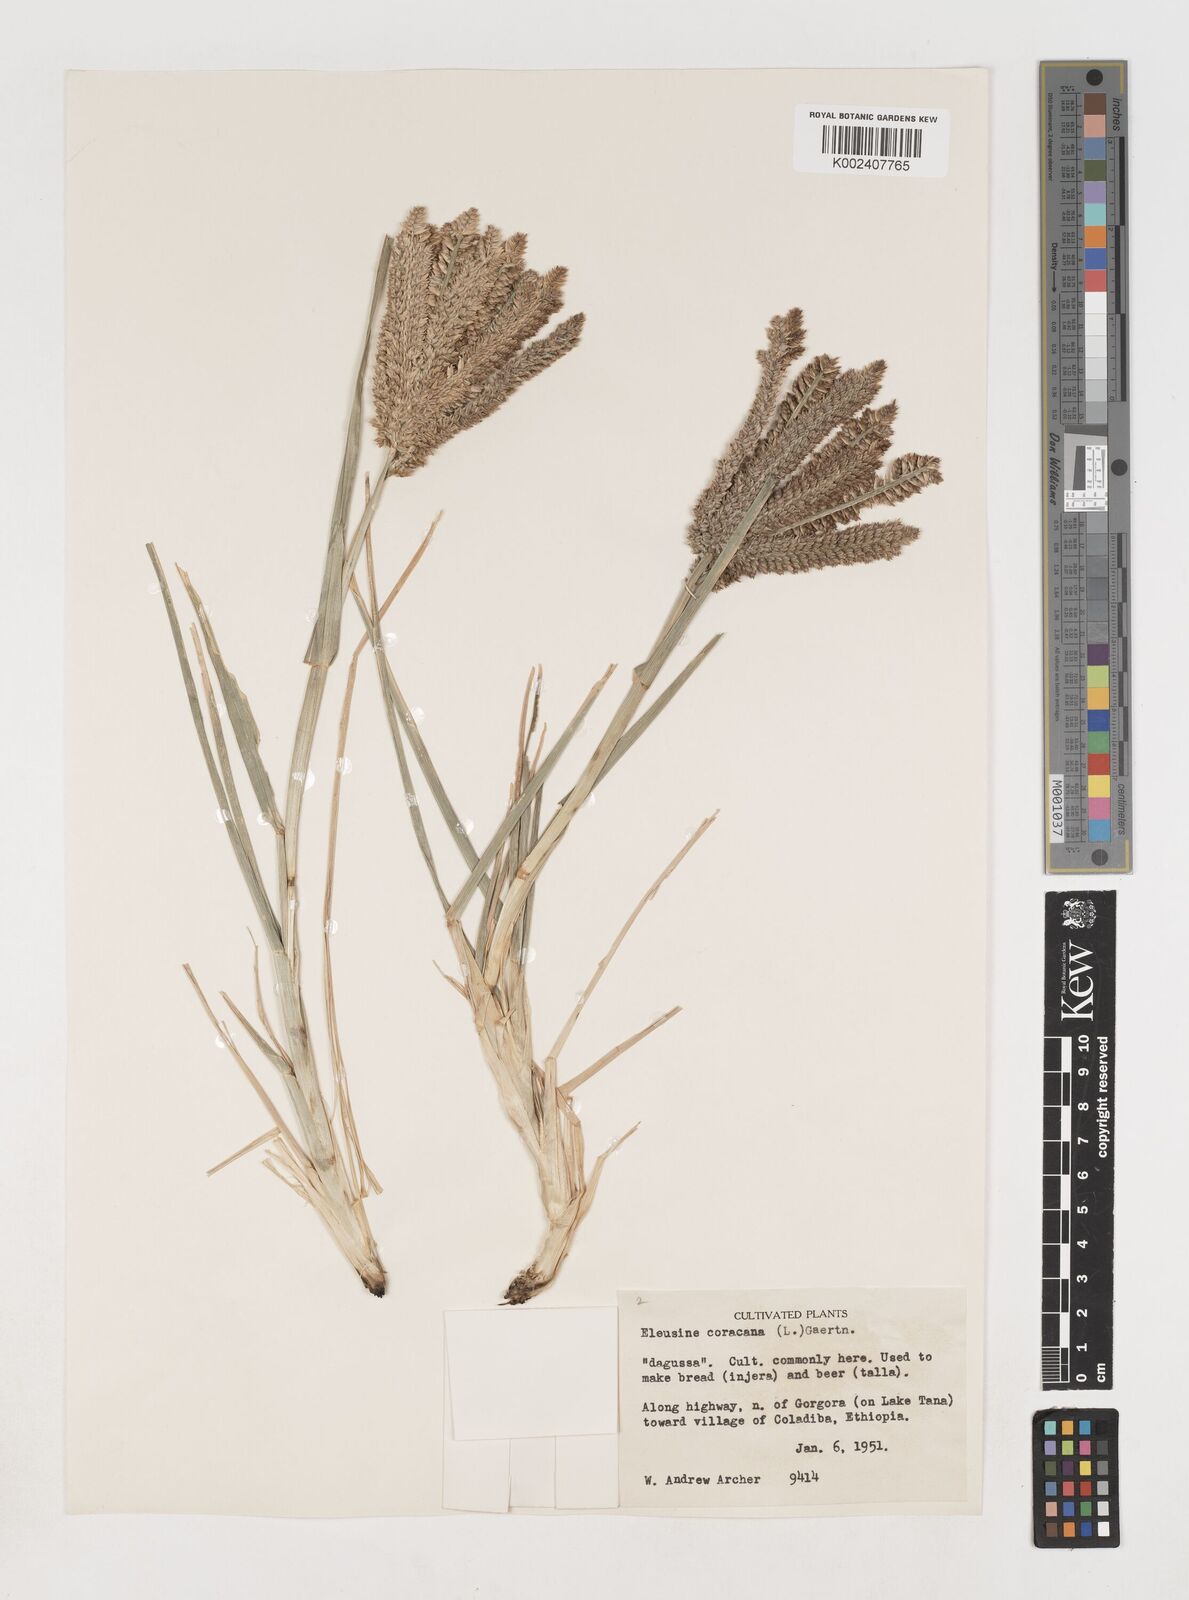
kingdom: Plantae
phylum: Tracheophyta
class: Liliopsida
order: Poales
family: Poaceae
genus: Eleusine
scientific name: Eleusine coracana
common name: Finger millet
